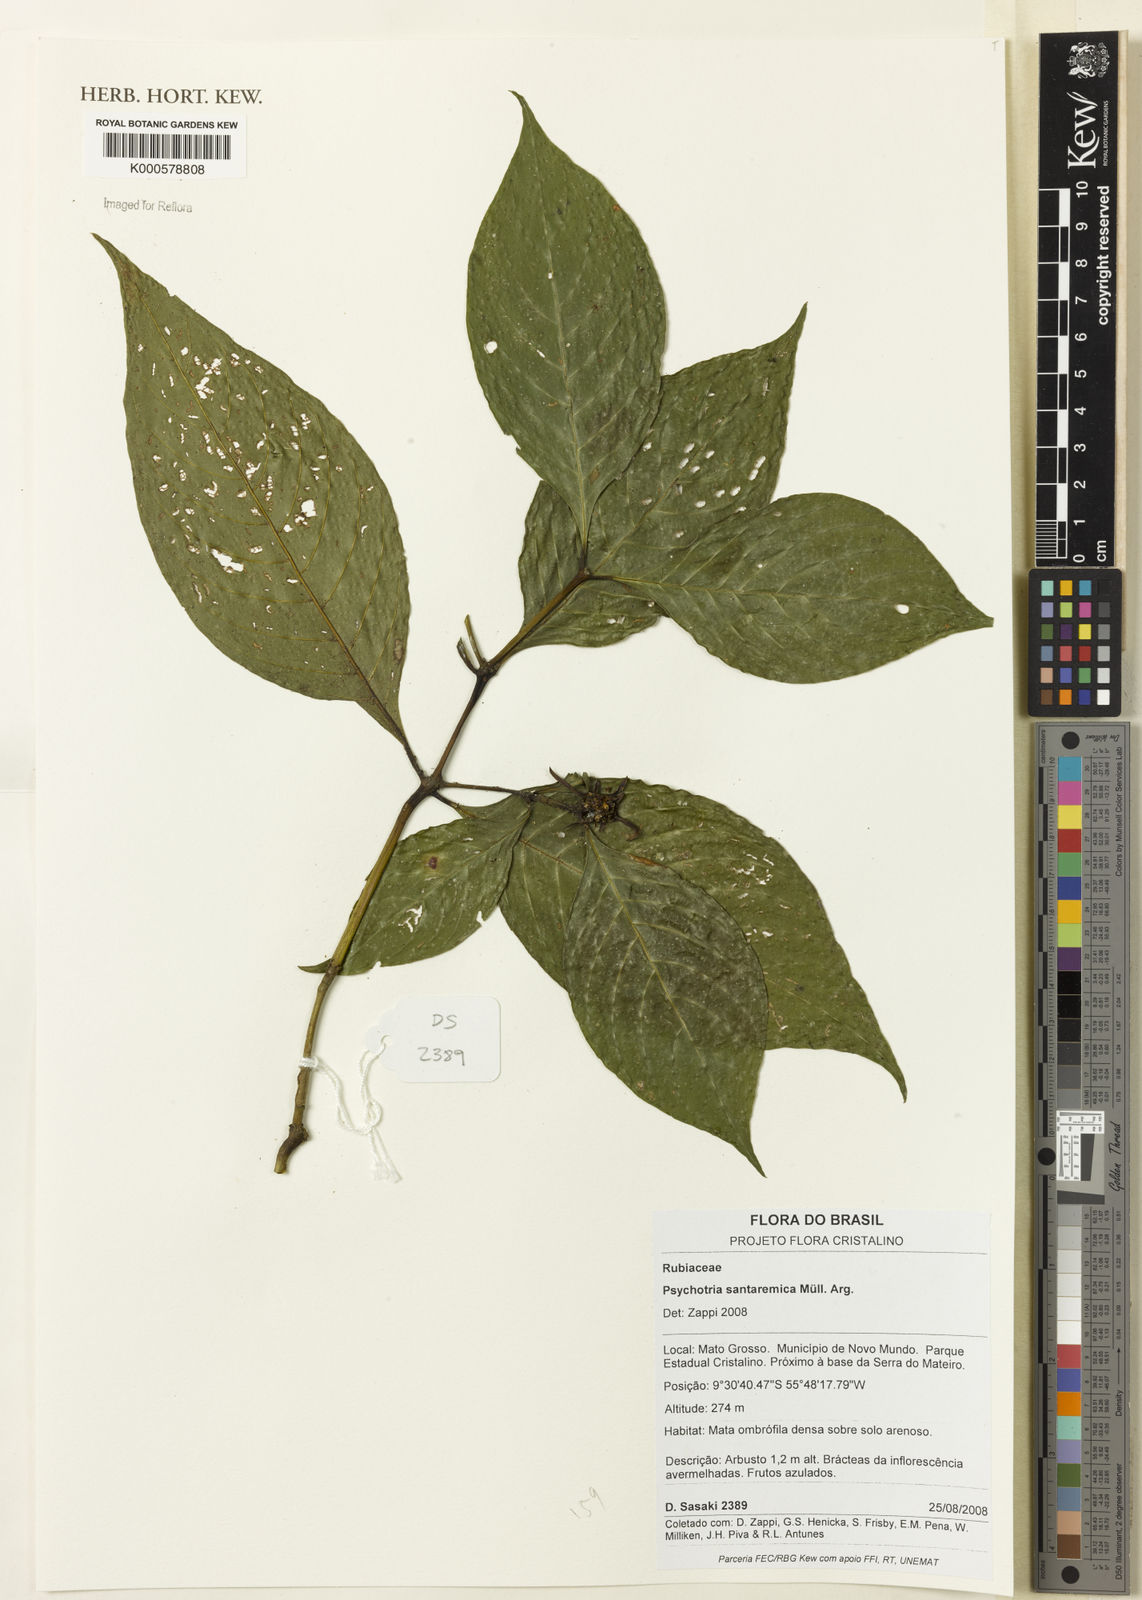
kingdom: Plantae
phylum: Tracheophyta
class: Magnoliopsida
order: Gentianales
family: Rubiaceae
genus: Psychotria
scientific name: Psychotria
